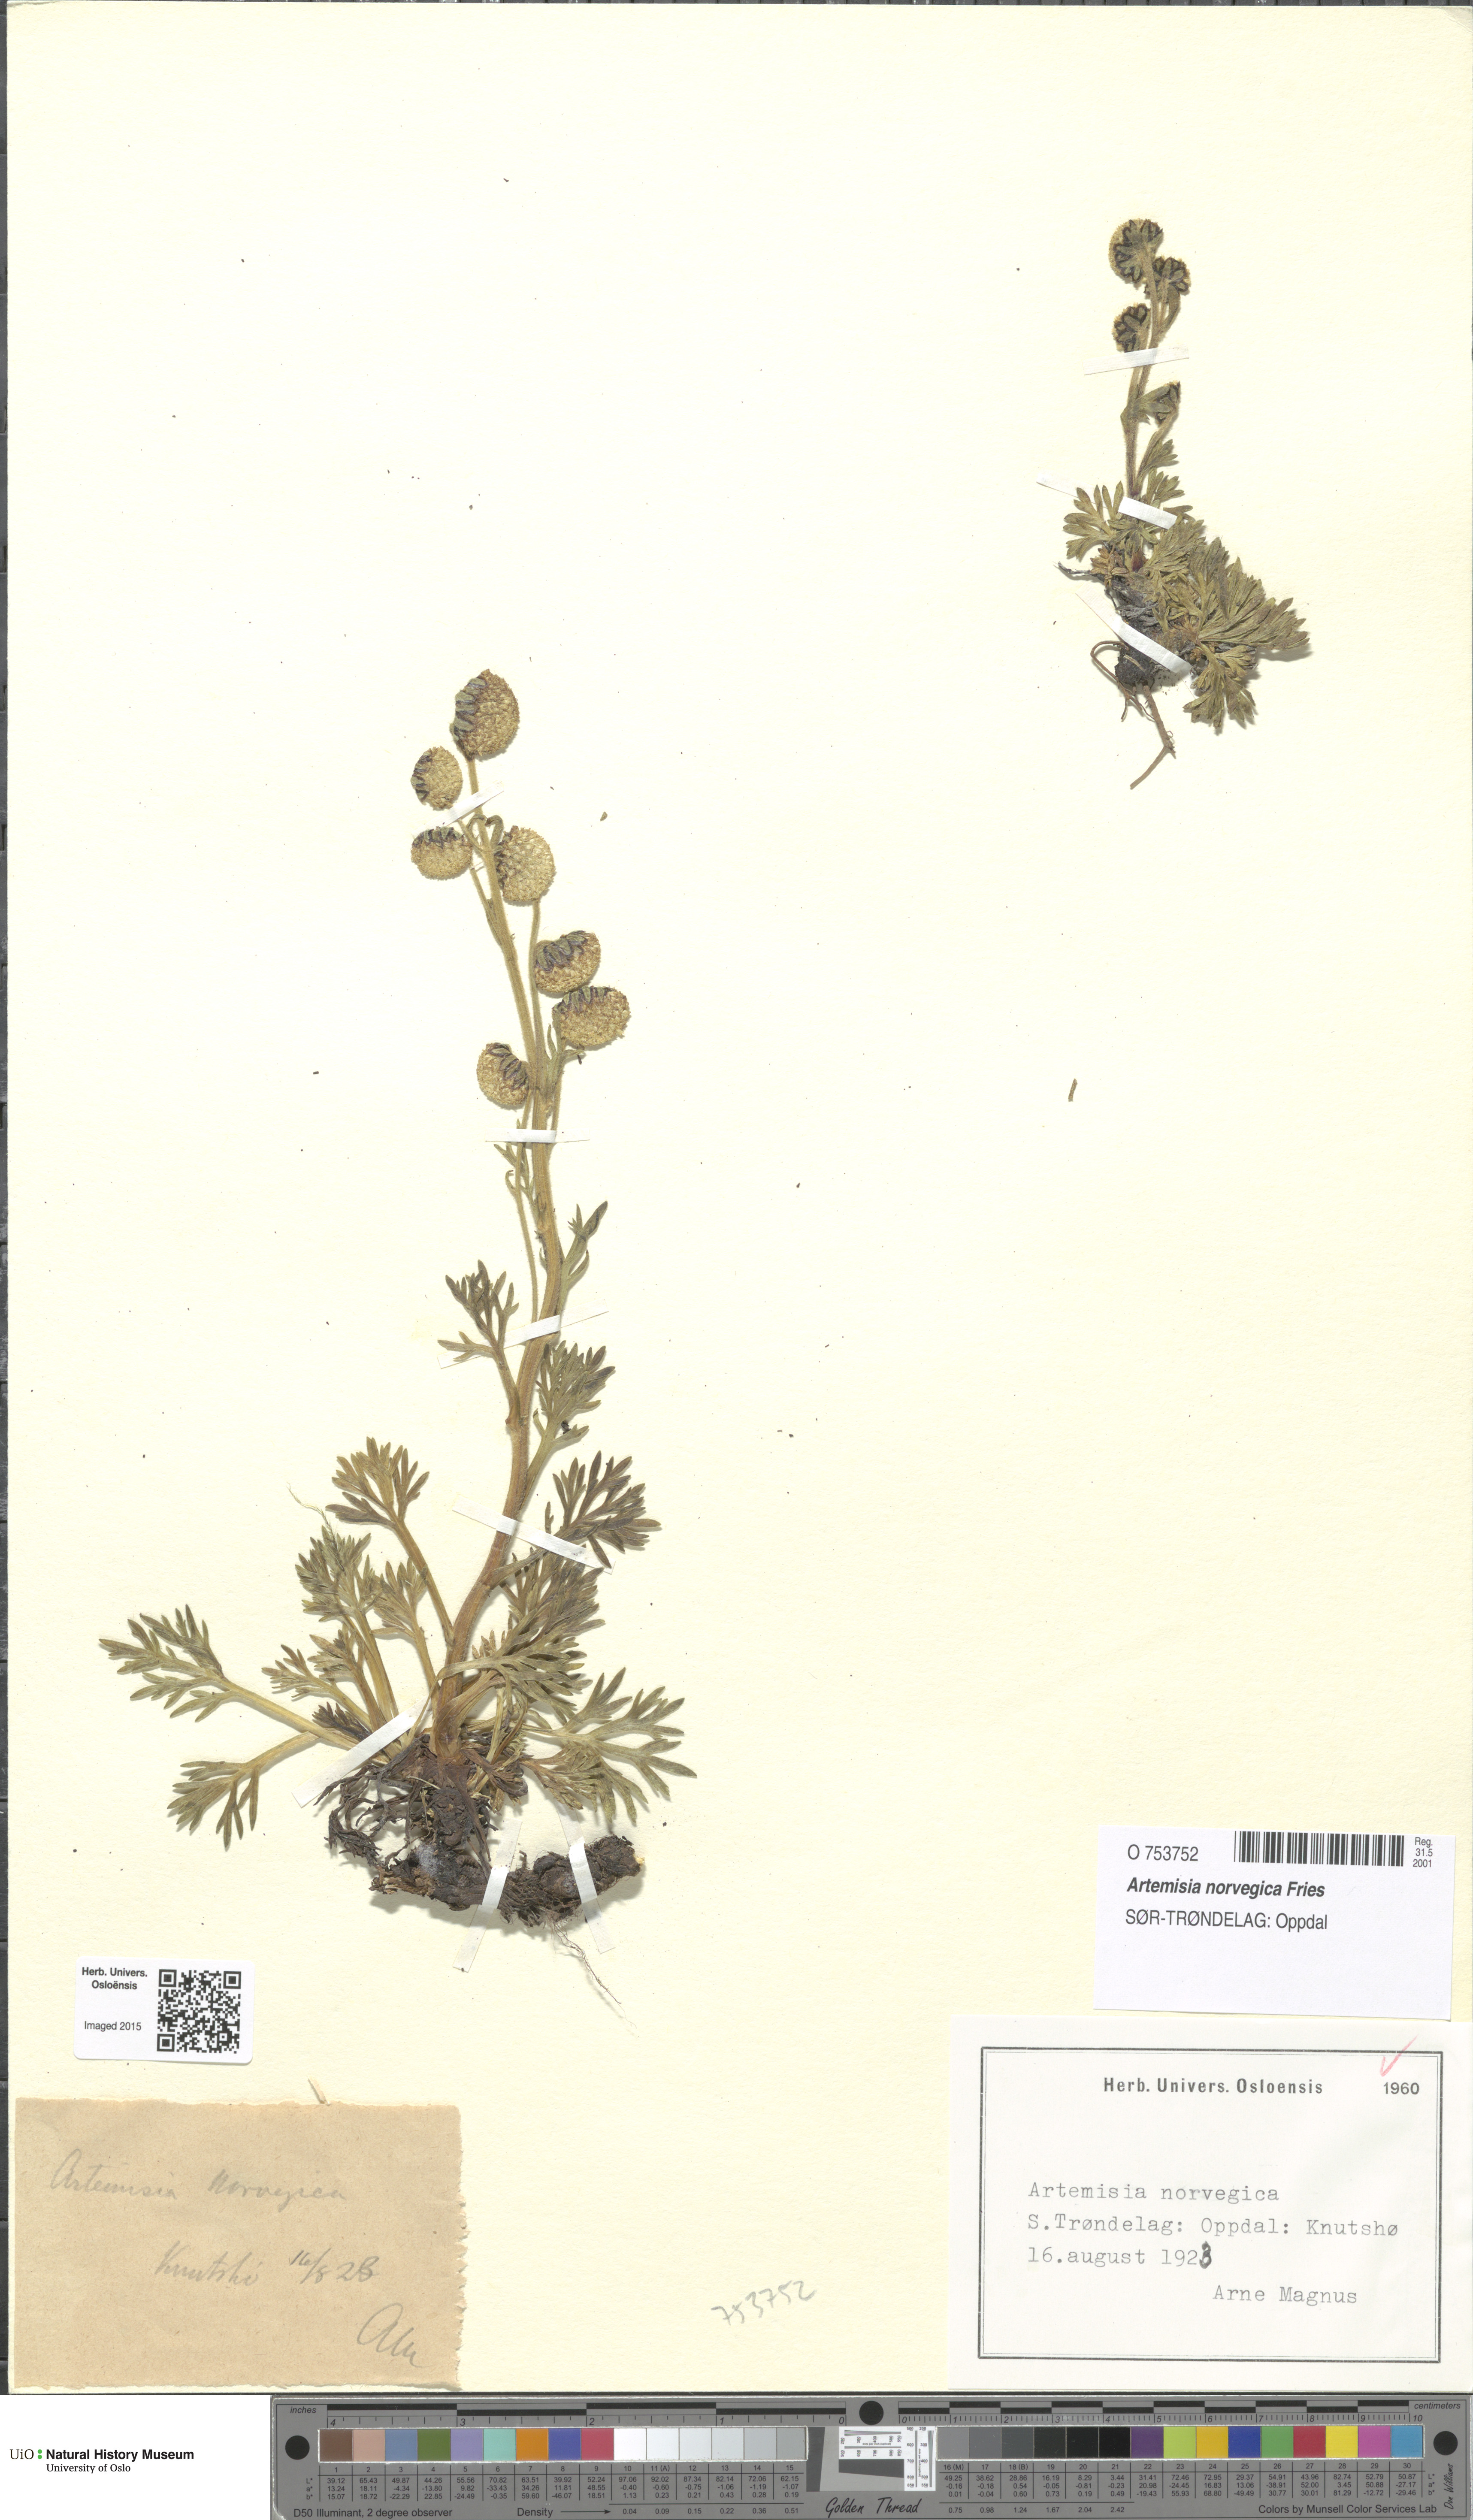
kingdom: Plantae
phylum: Tracheophyta
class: Magnoliopsida
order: Asterales
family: Asteraceae
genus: Artemisia
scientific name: Artemisia norvegica
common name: Norwegian mugwort
